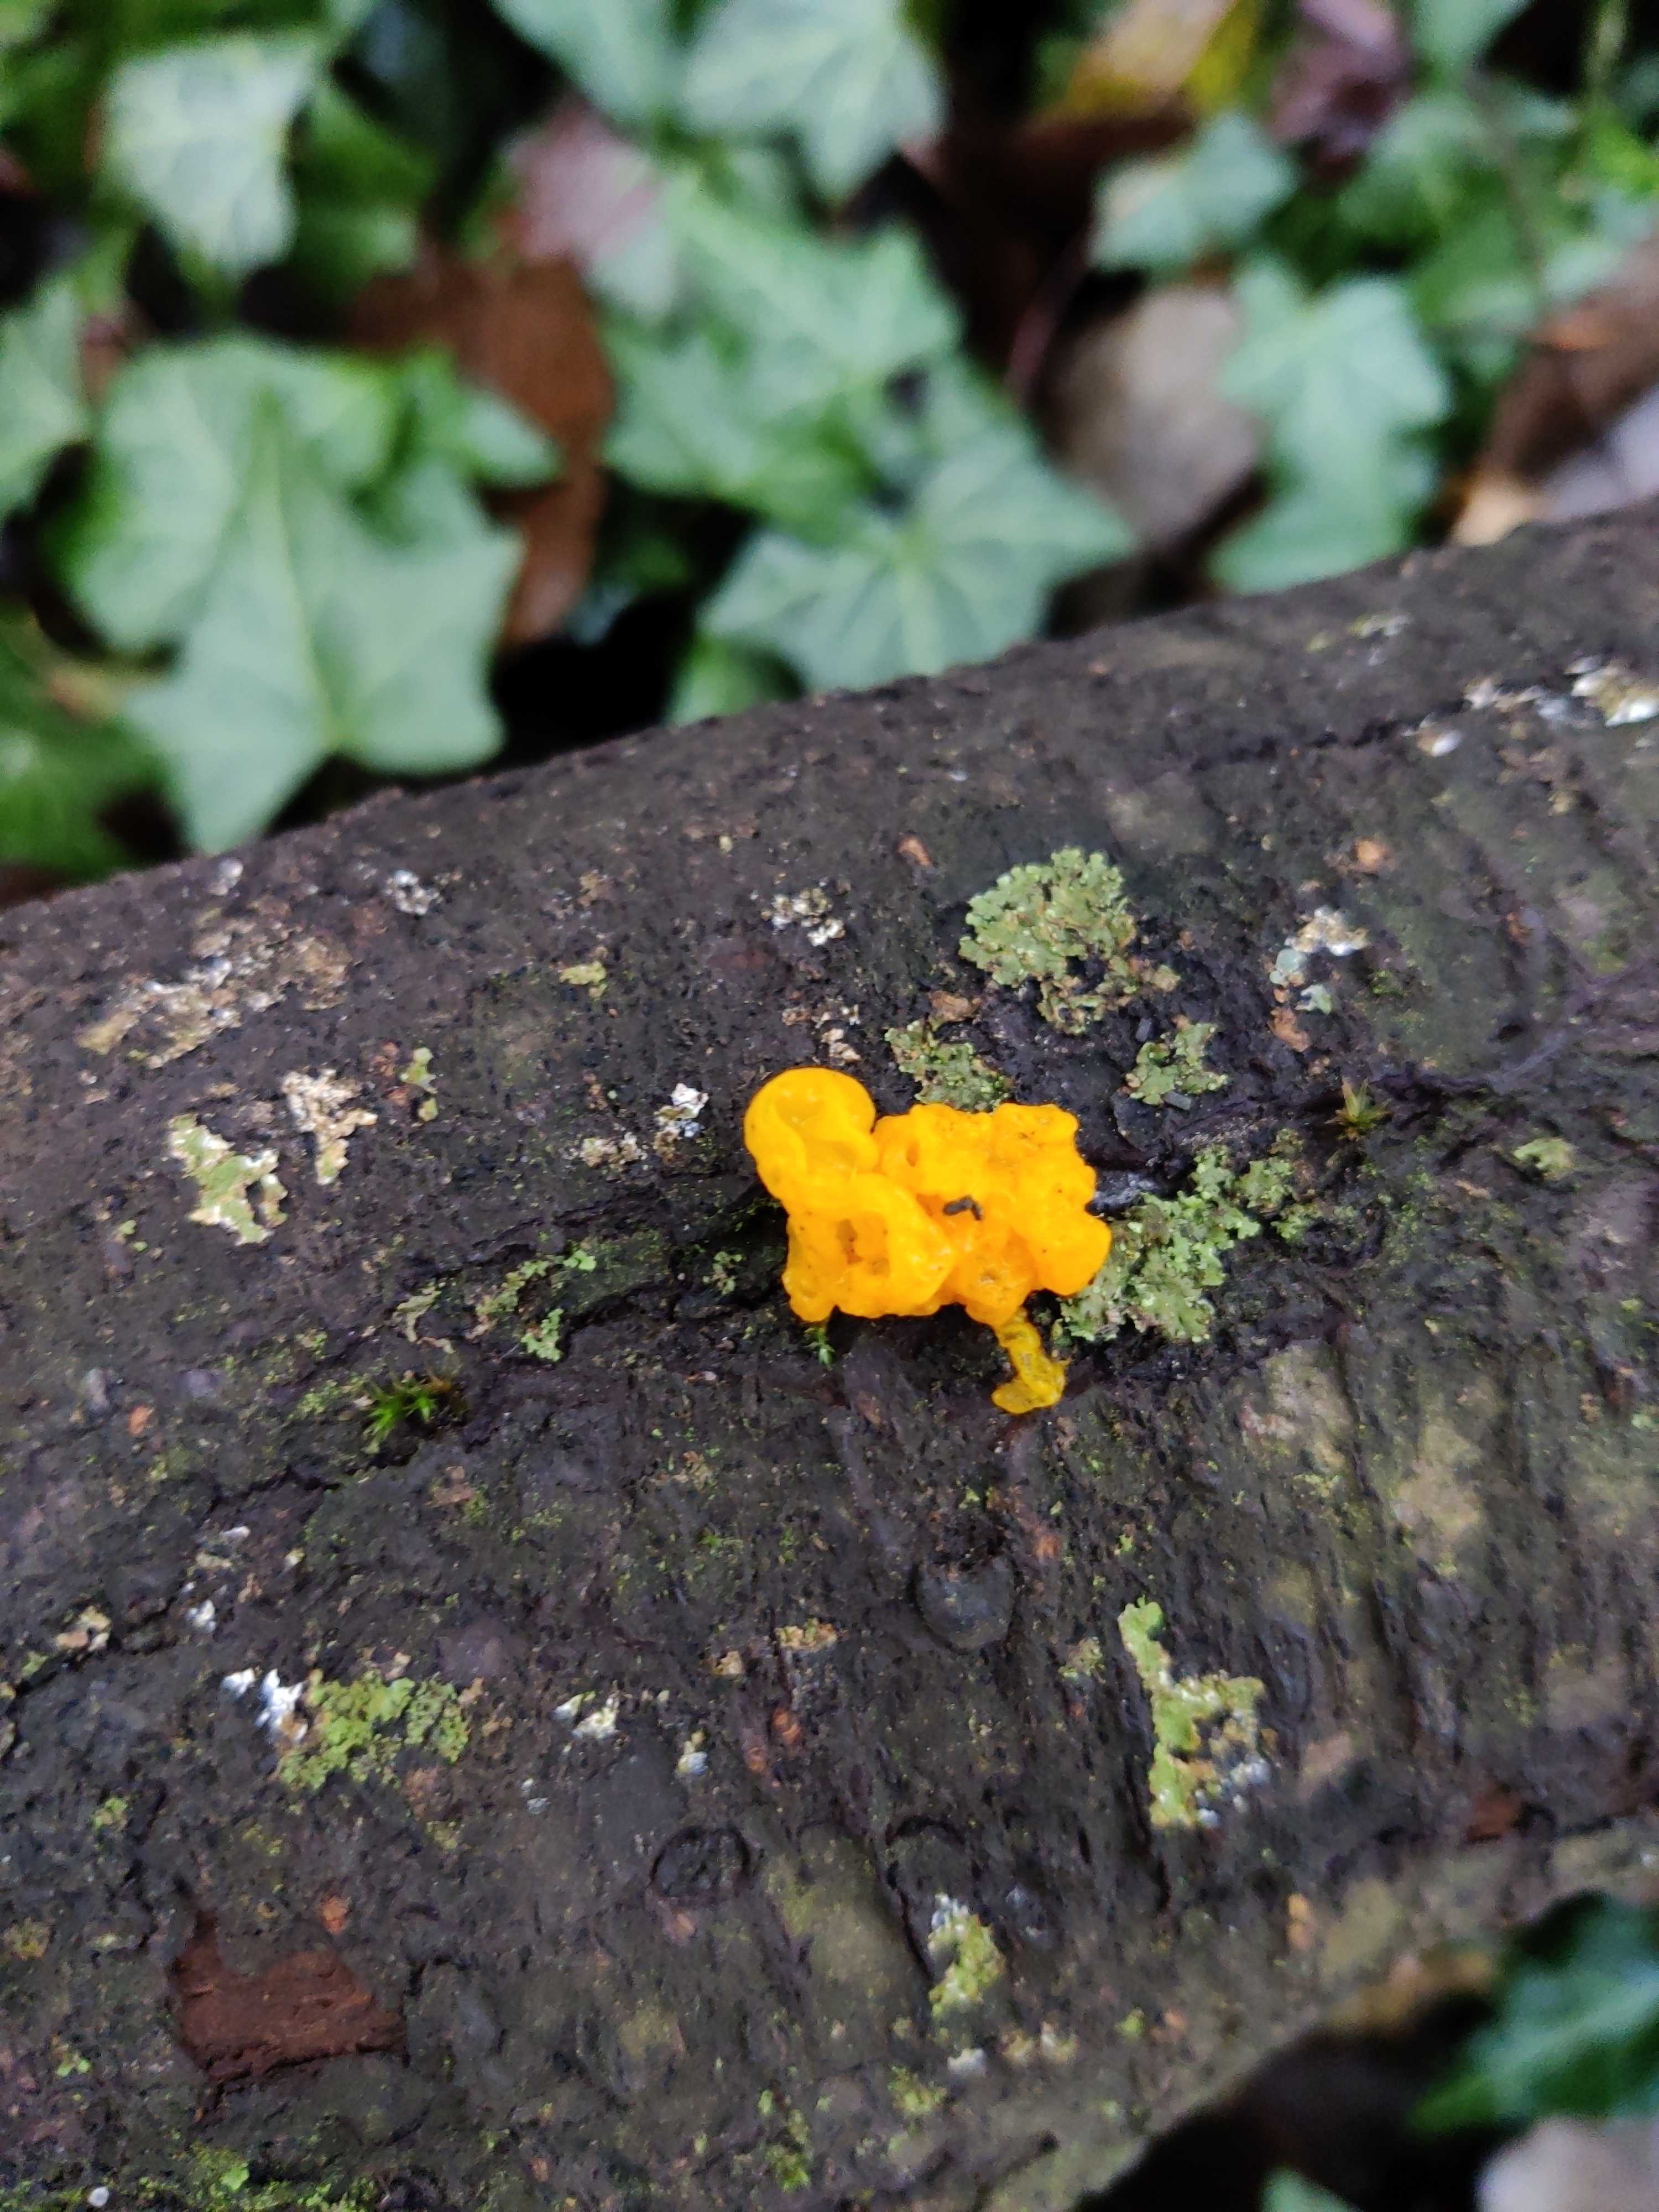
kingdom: Fungi
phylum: Basidiomycota
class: Tremellomycetes
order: Tremellales
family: Tremellaceae
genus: Tremella
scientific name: Tremella mesenterica
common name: gul bævresvamp
